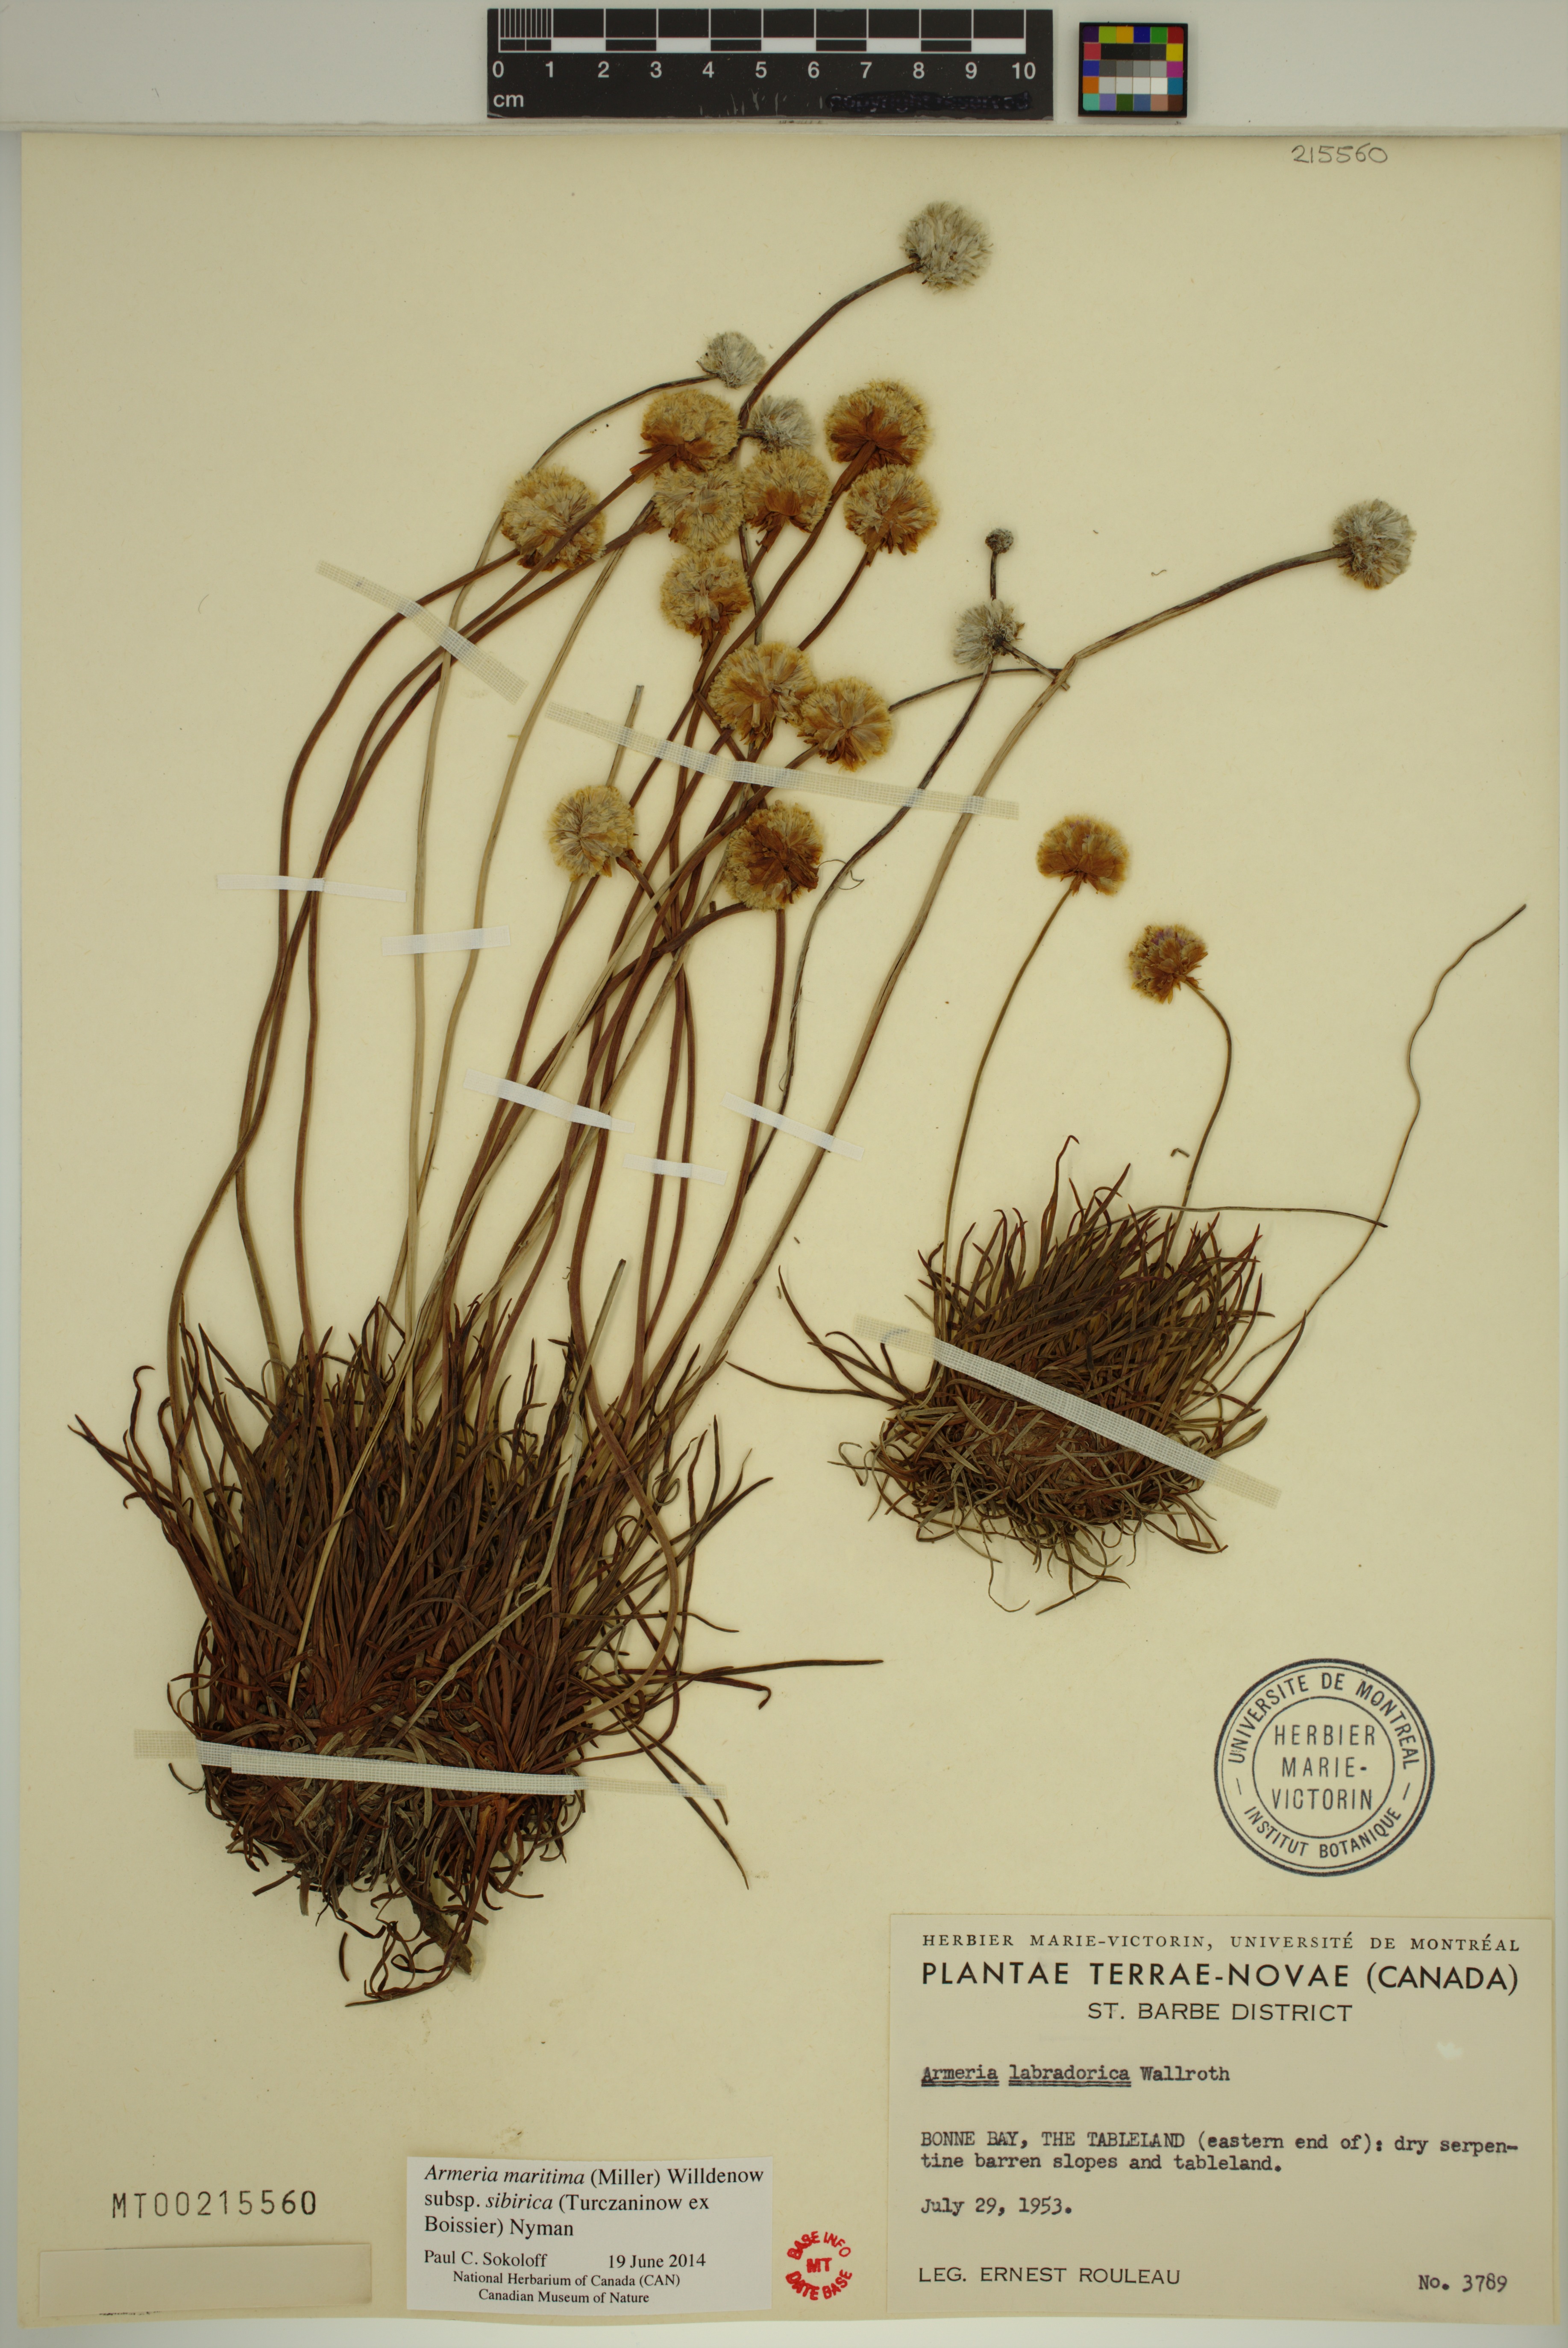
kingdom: Plantae
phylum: Tracheophyta
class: Magnoliopsida
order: Caryophyllales
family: Plumbaginaceae
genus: Armeria
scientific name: Armeria maritima
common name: Thrift
